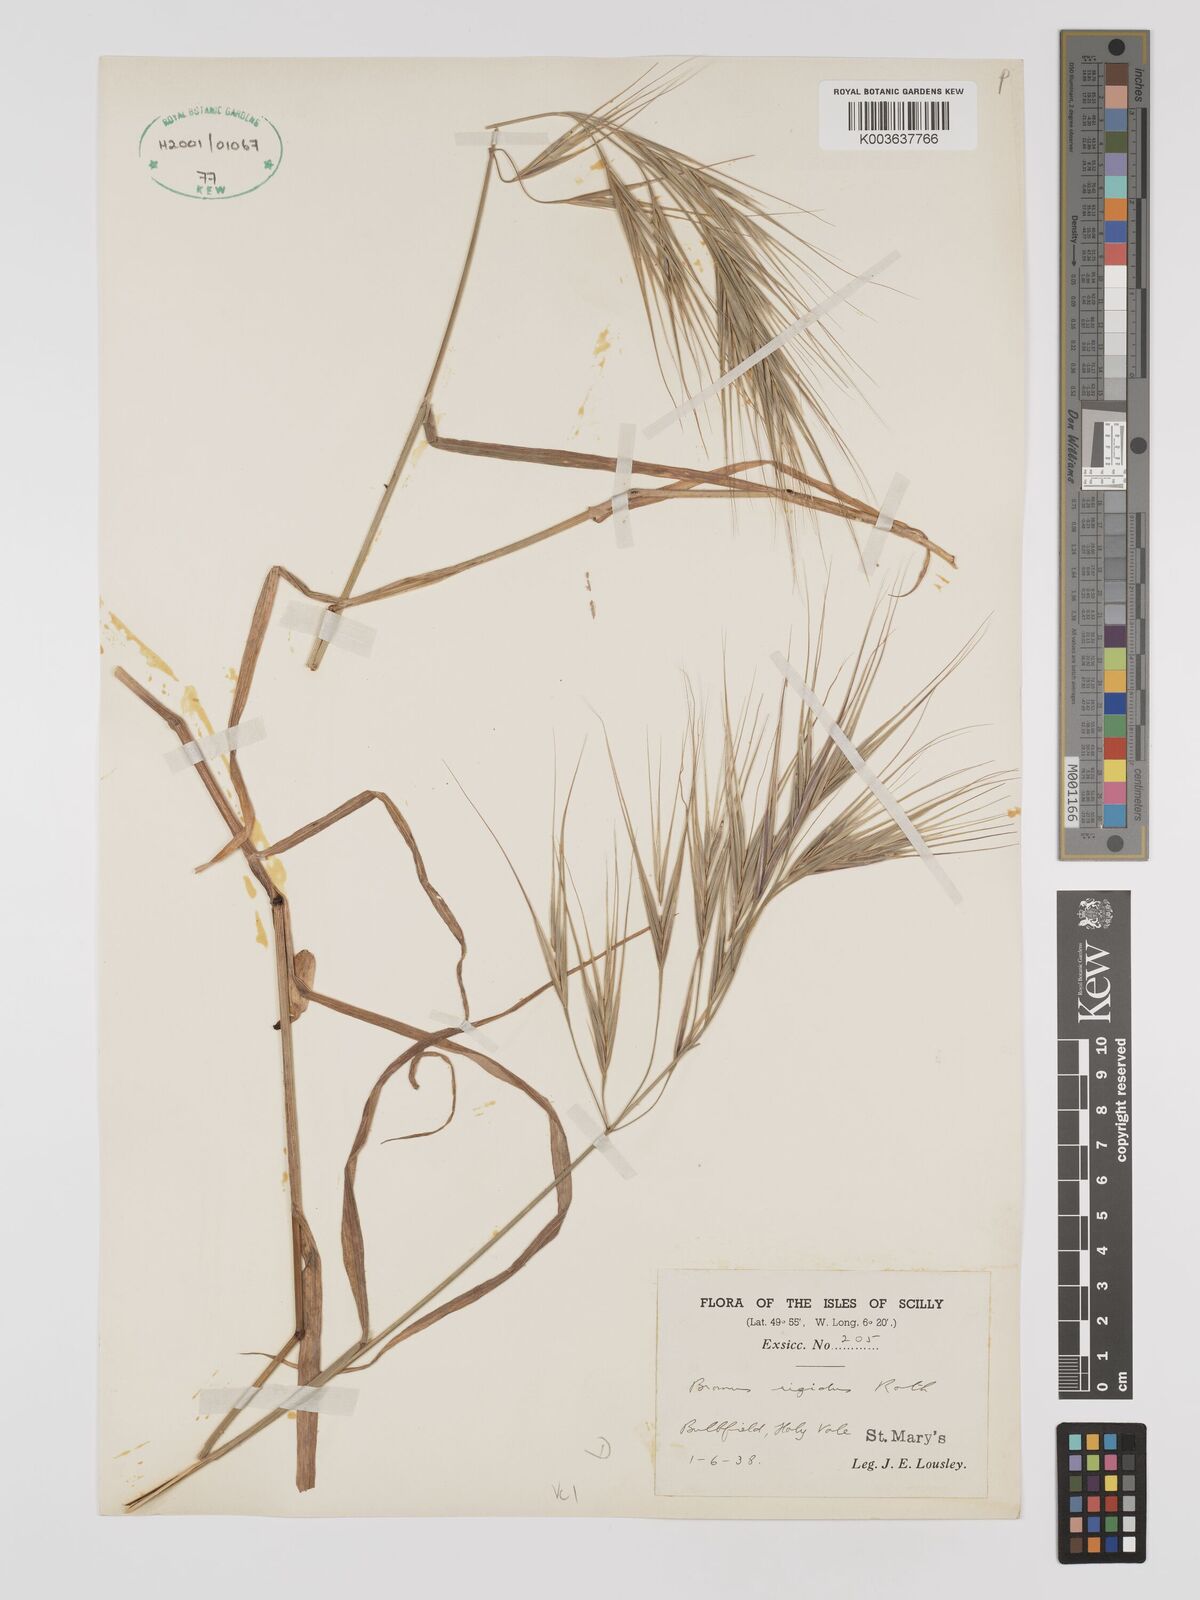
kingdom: Plantae
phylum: Tracheophyta
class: Liliopsida
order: Poales
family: Poaceae
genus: Bromus
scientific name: Bromus
